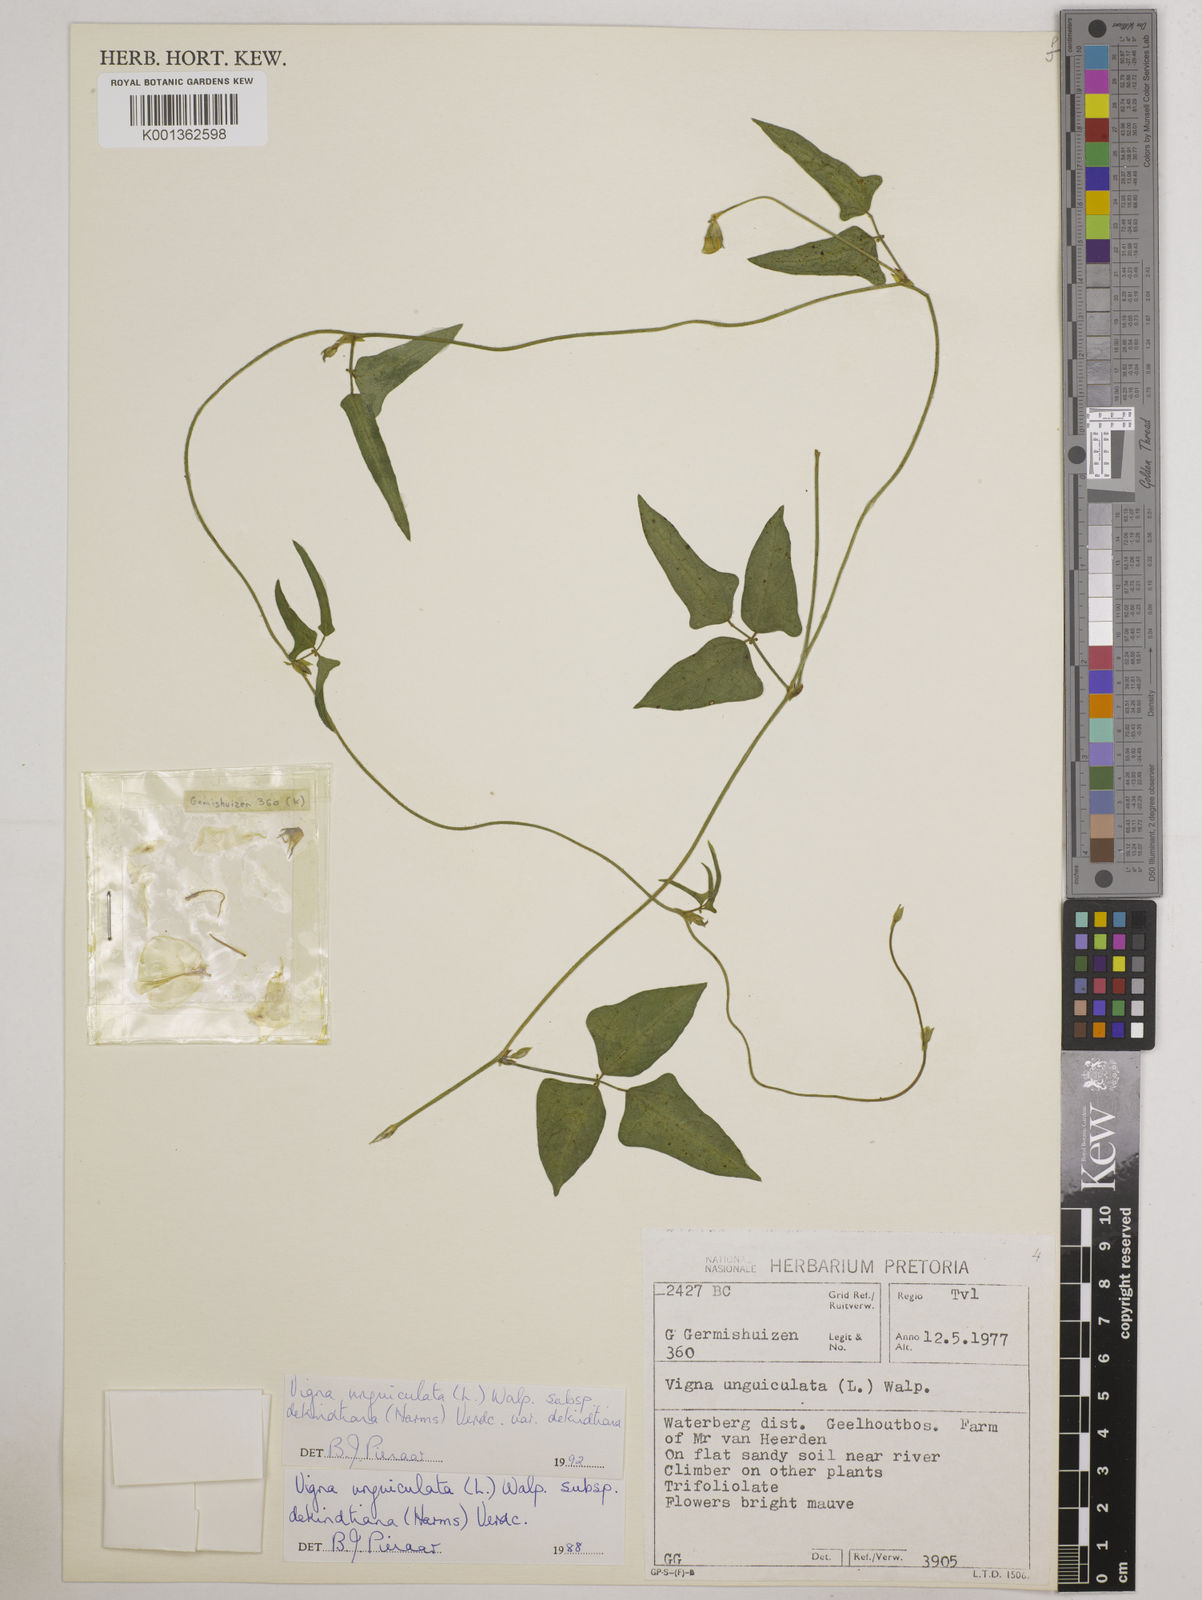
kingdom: Plantae
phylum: Tracheophyta
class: Magnoliopsida
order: Fabales
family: Fabaceae
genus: Vigna
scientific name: Vigna
